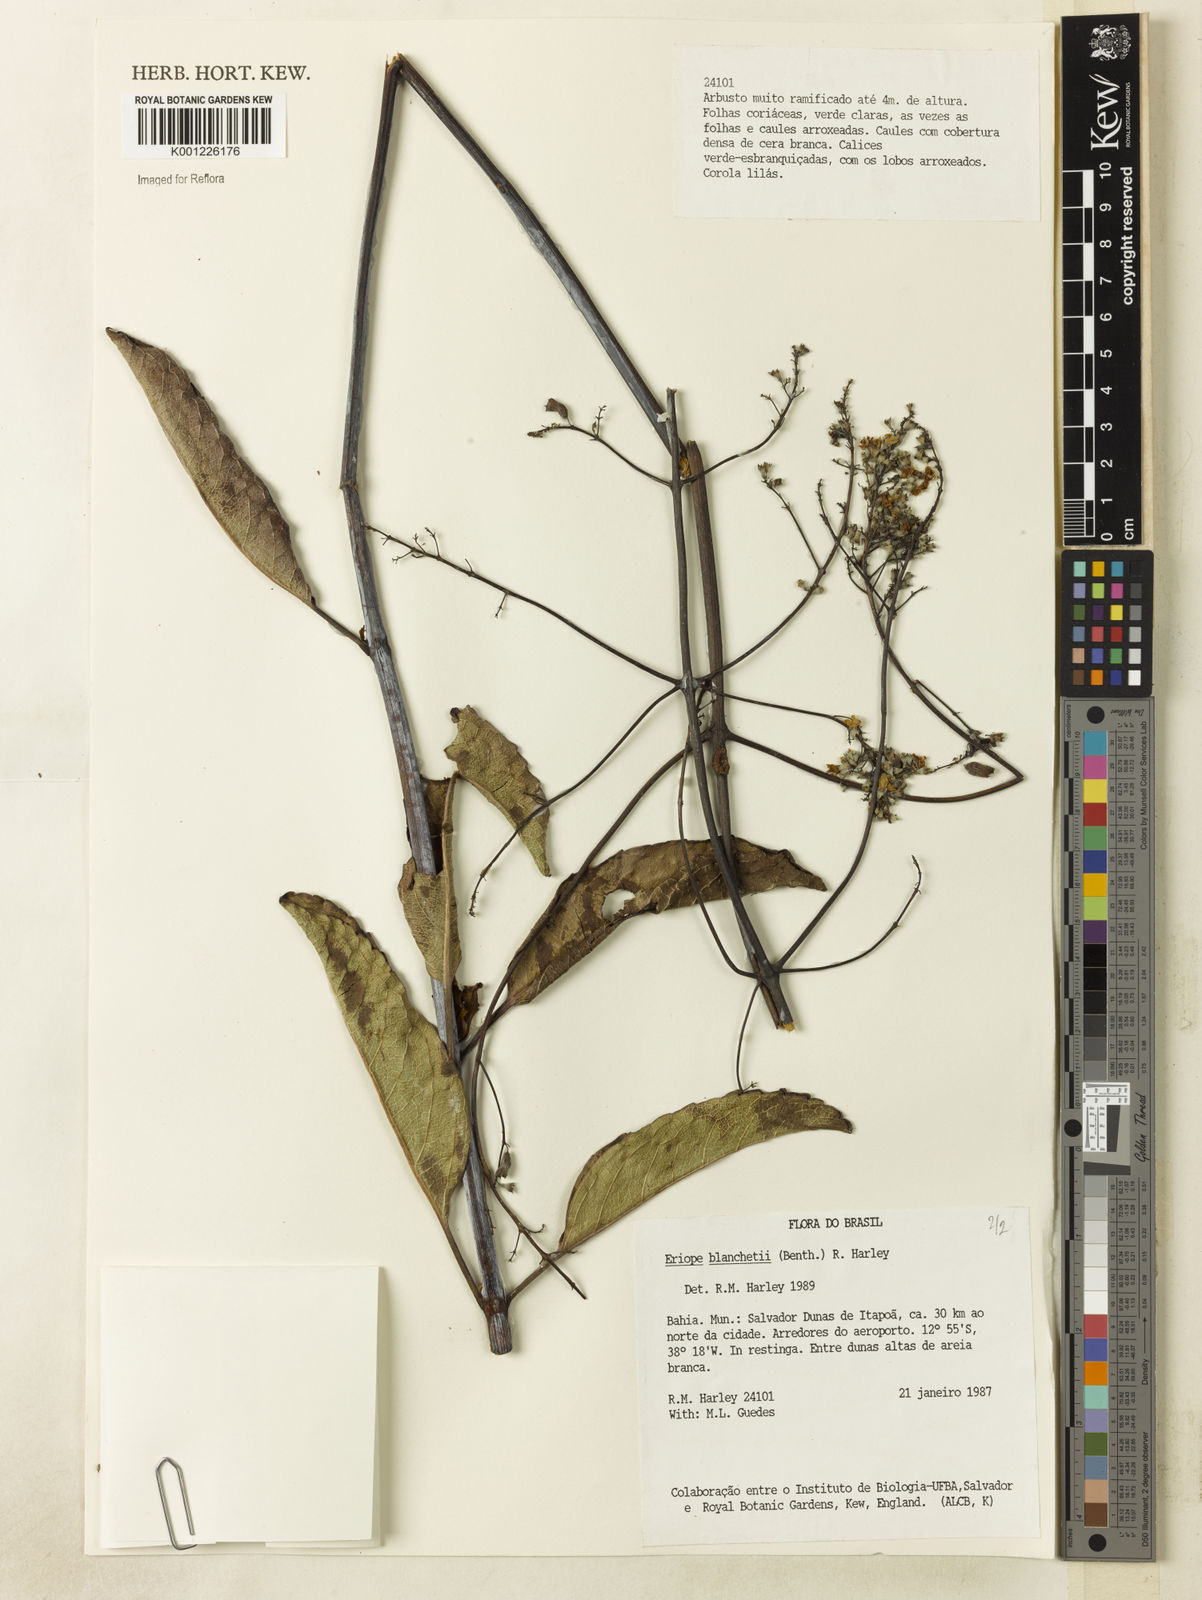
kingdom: Plantae
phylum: Tracheophyta
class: Magnoliopsida
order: Lamiales
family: Lamiaceae
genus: Eriope
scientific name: Eriope blanchetii
